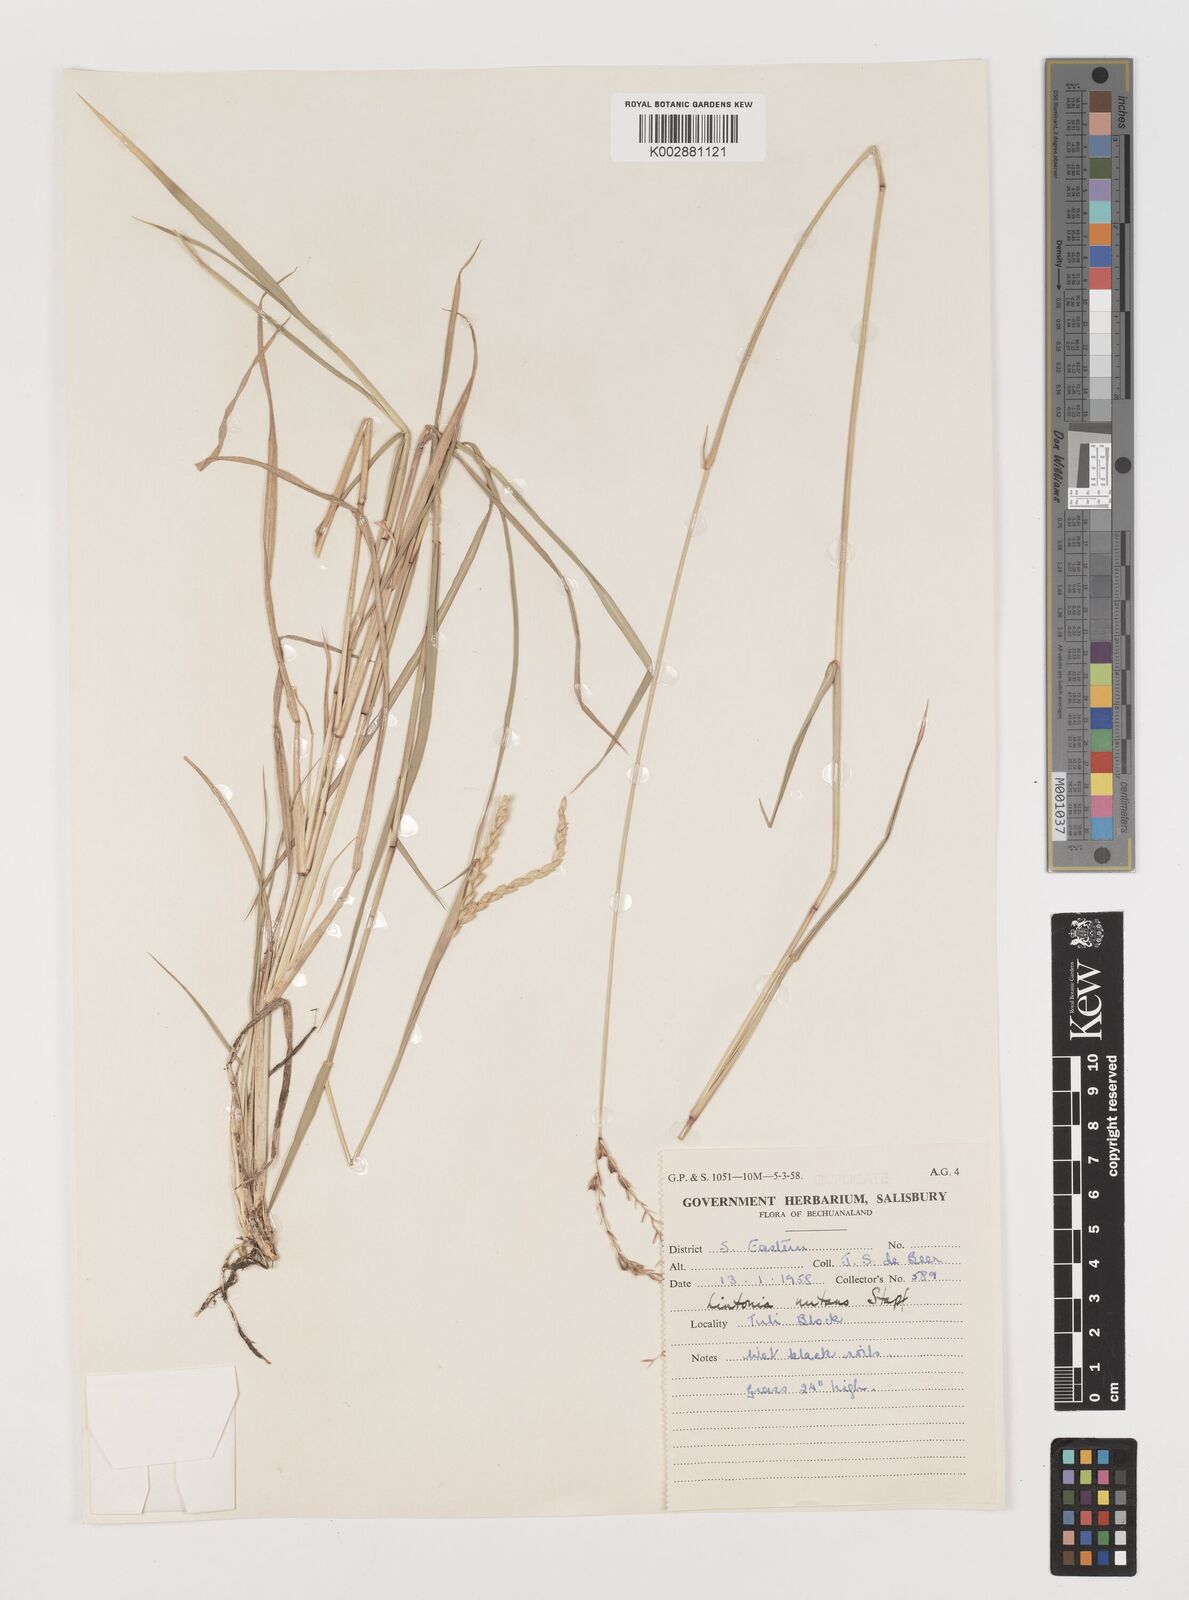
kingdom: Plantae
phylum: Tracheophyta
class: Liliopsida
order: Poales
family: Poaceae
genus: Chloris
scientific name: Chloris nutans
